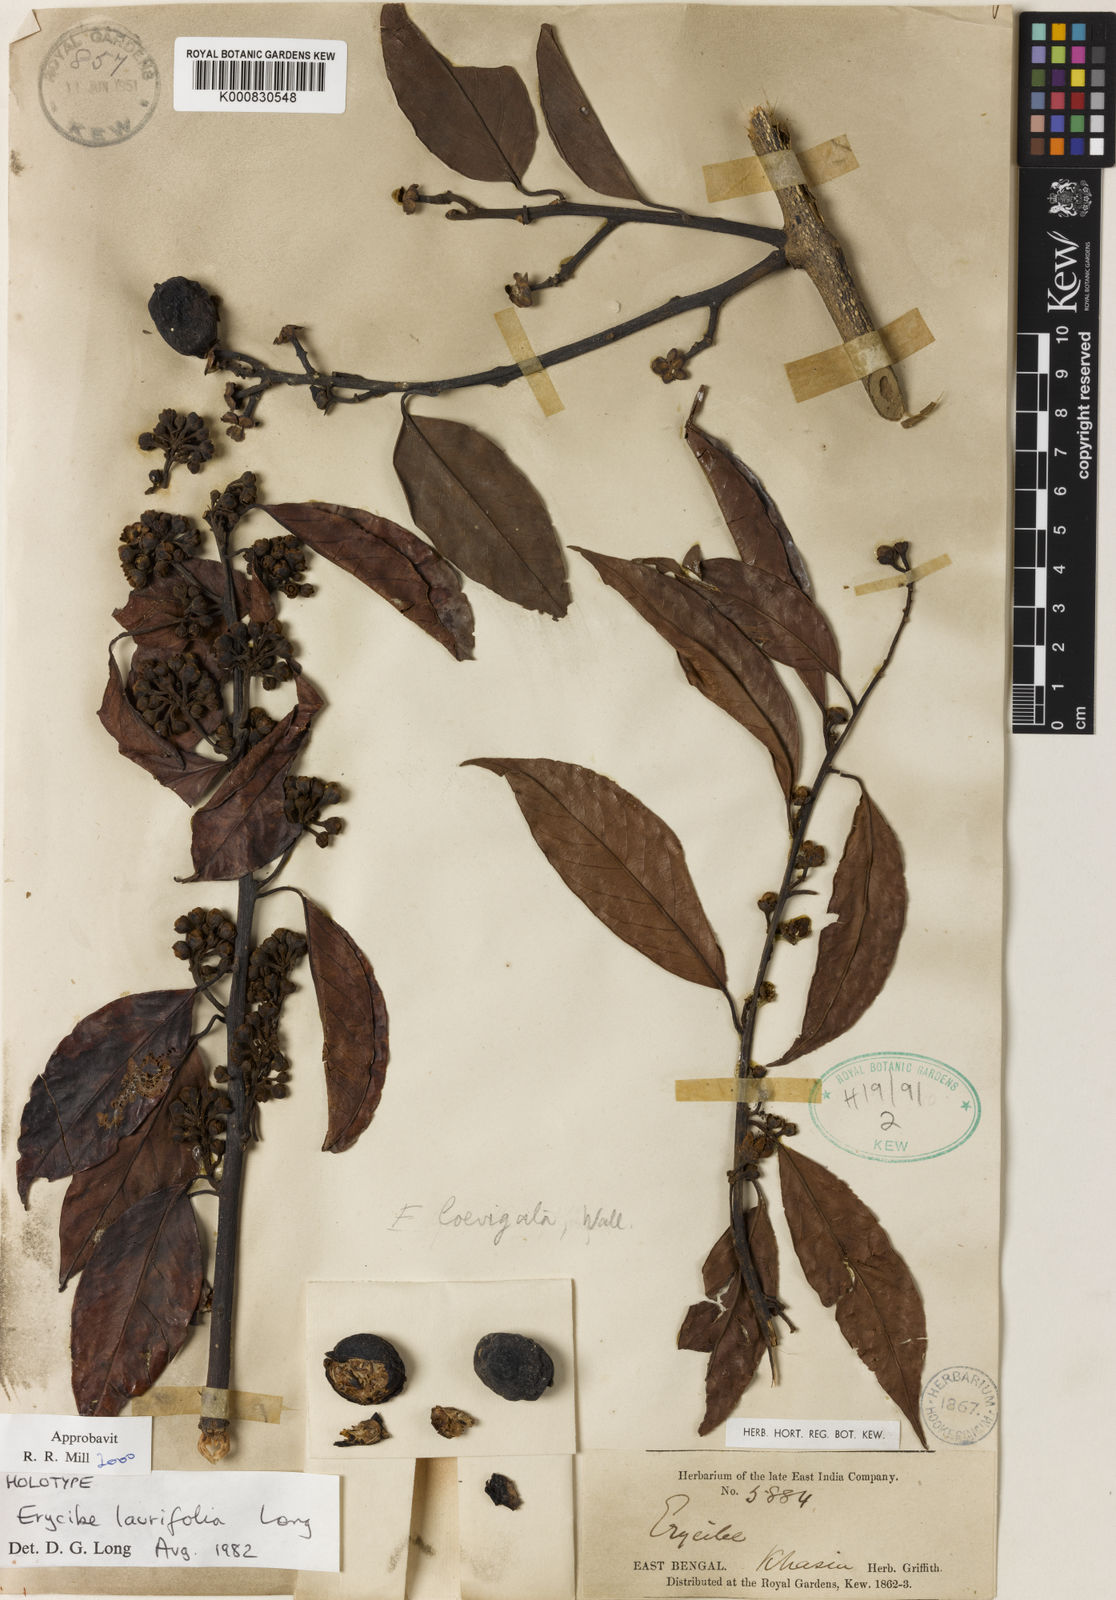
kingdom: Plantae
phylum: Tracheophyta
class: Magnoliopsida
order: Solanales
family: Convolvulaceae
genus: Erycibe
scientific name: Erycibe laurifolia
